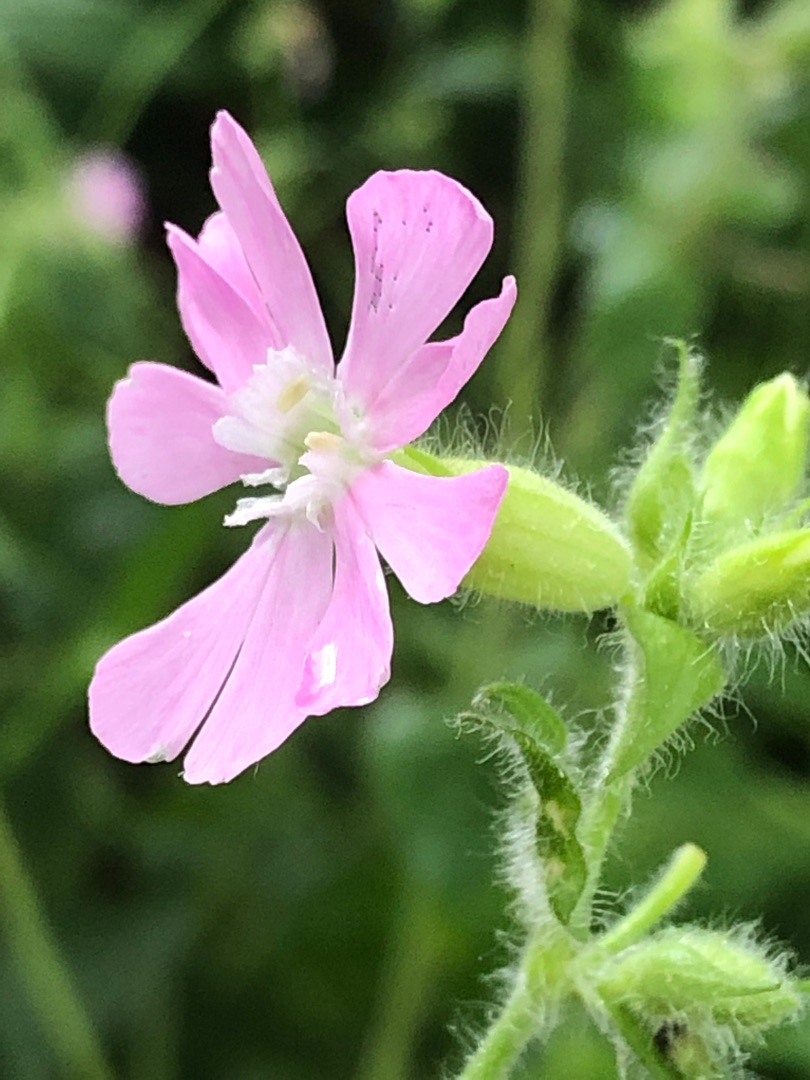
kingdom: Plantae
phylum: Tracheophyta
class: Magnoliopsida
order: Caryophyllales
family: Caryophyllaceae
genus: Silene
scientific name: Silene dioica
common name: Dagpragtstjerne
